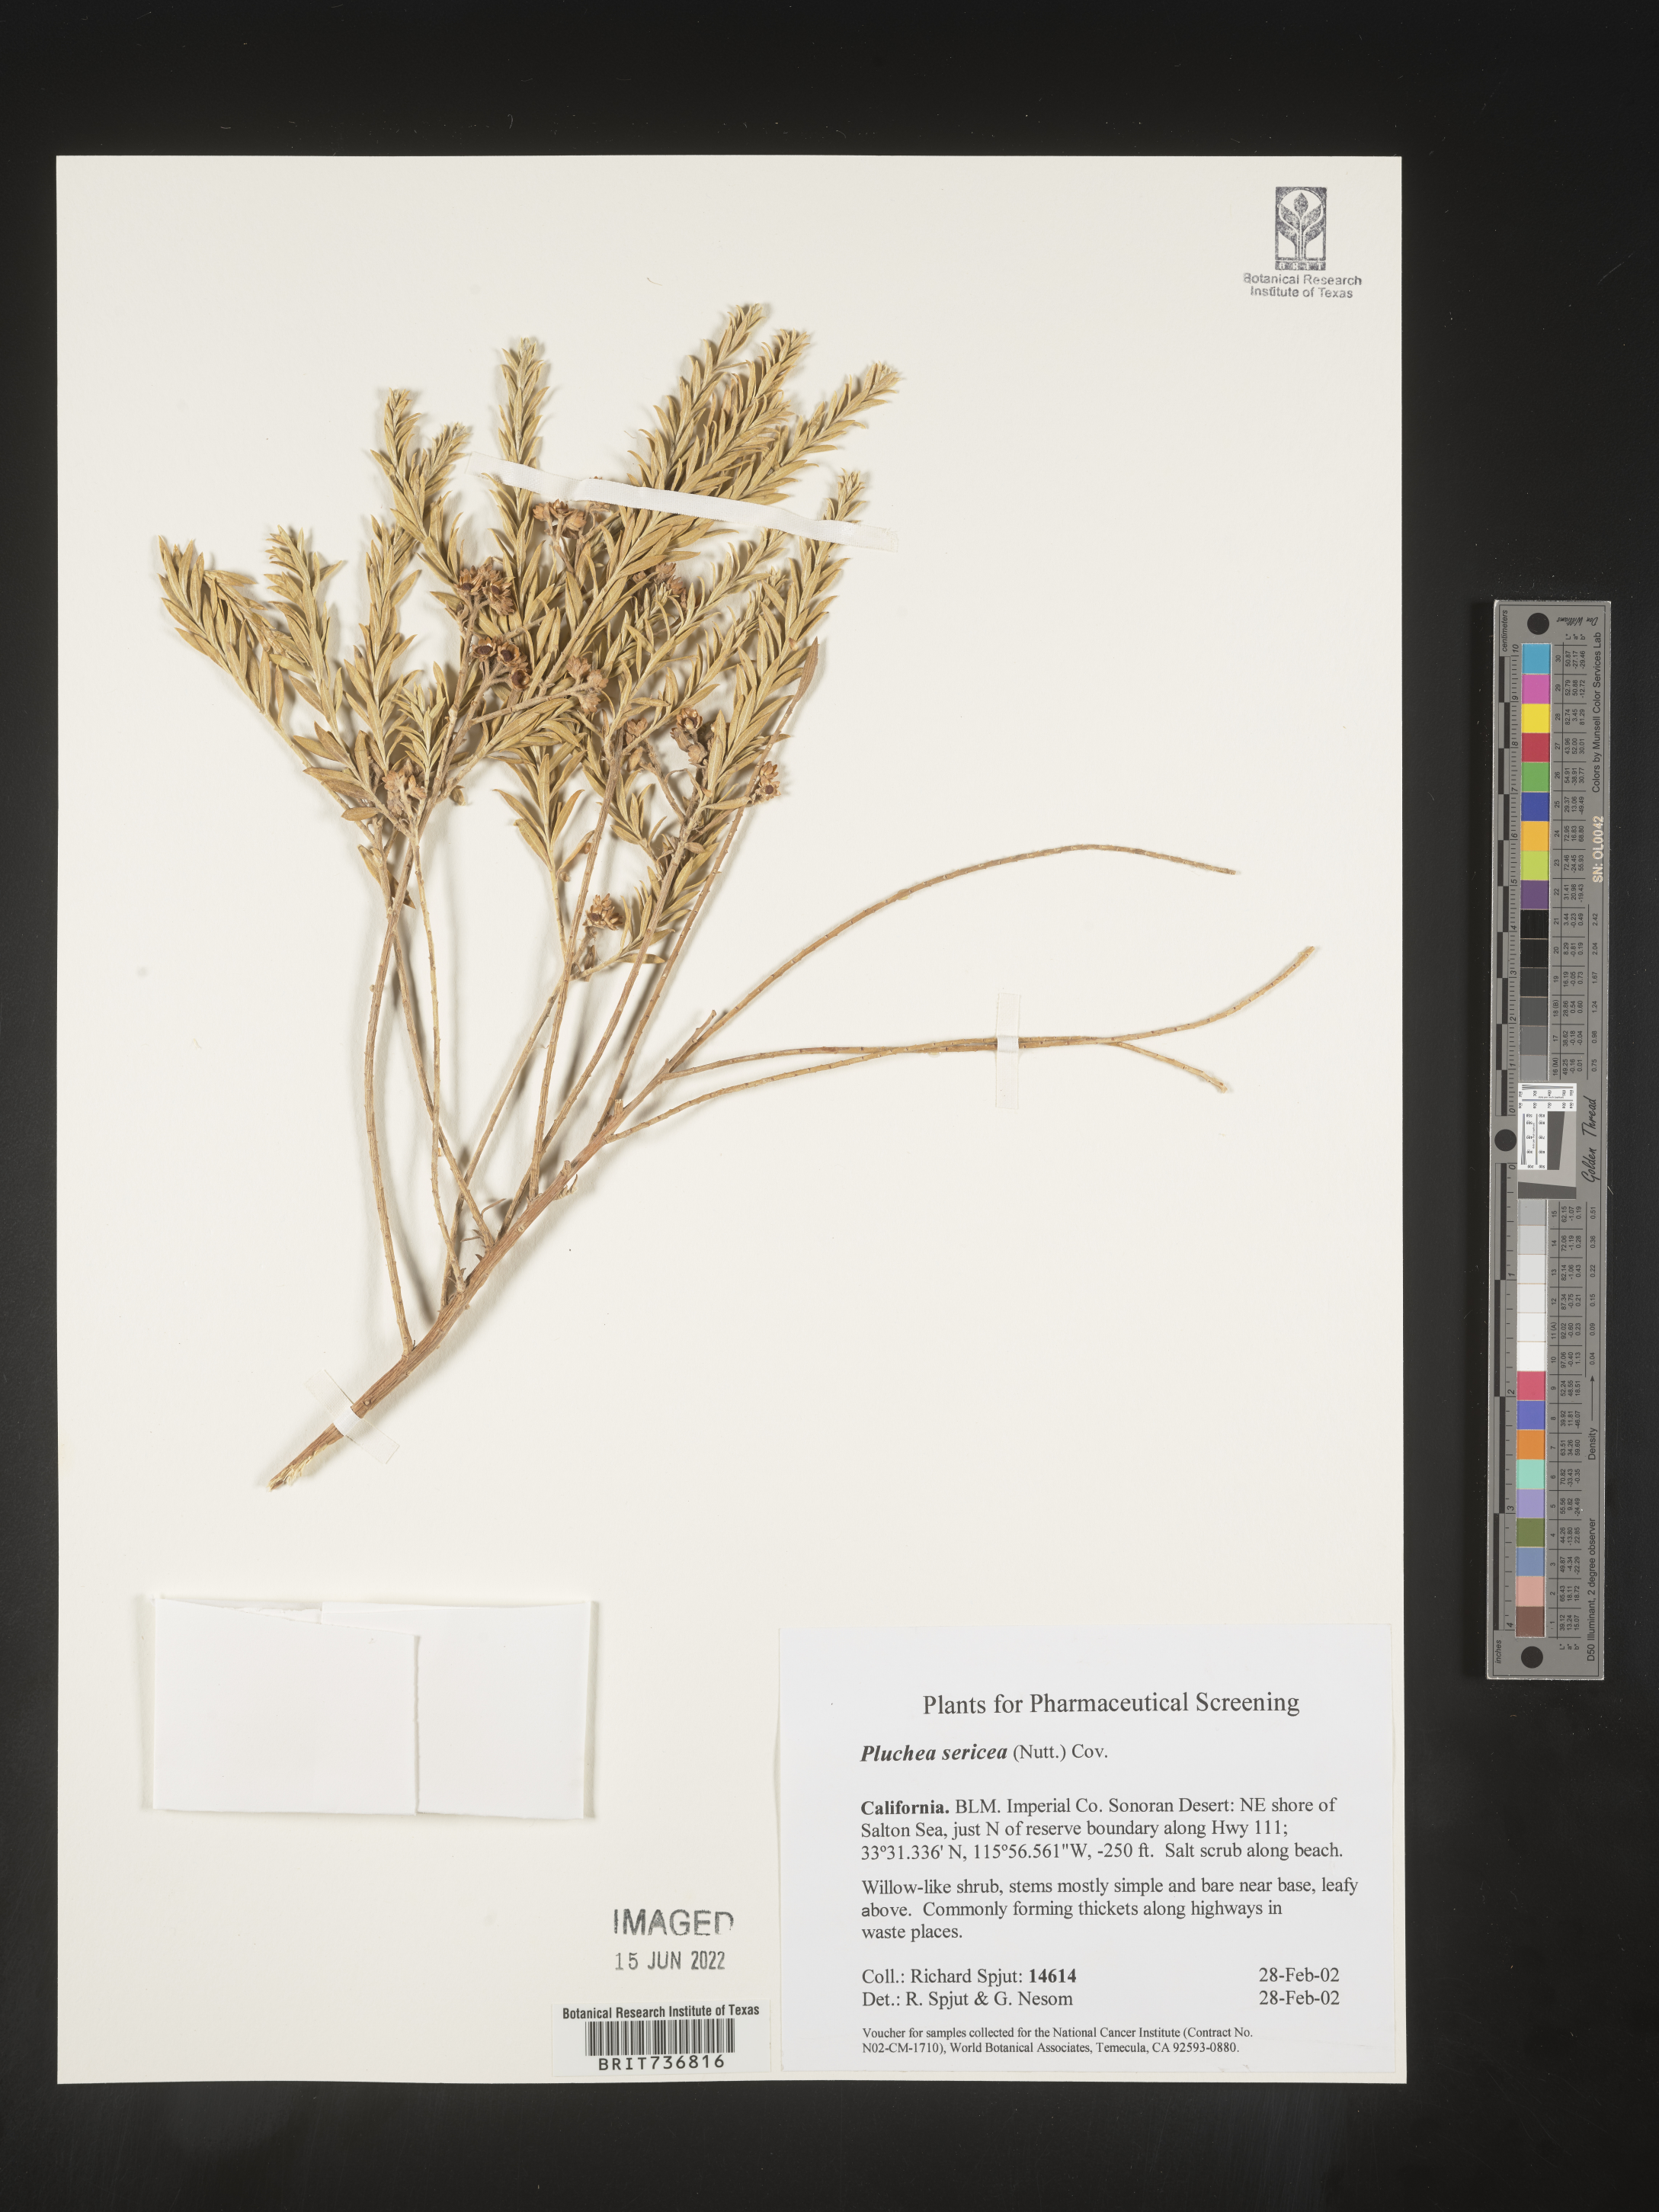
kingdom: Plantae
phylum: Tracheophyta
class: Magnoliopsida
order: Asterales
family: Asteraceae
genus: Pluchea
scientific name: Pluchea sericea
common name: Arrow-weed
